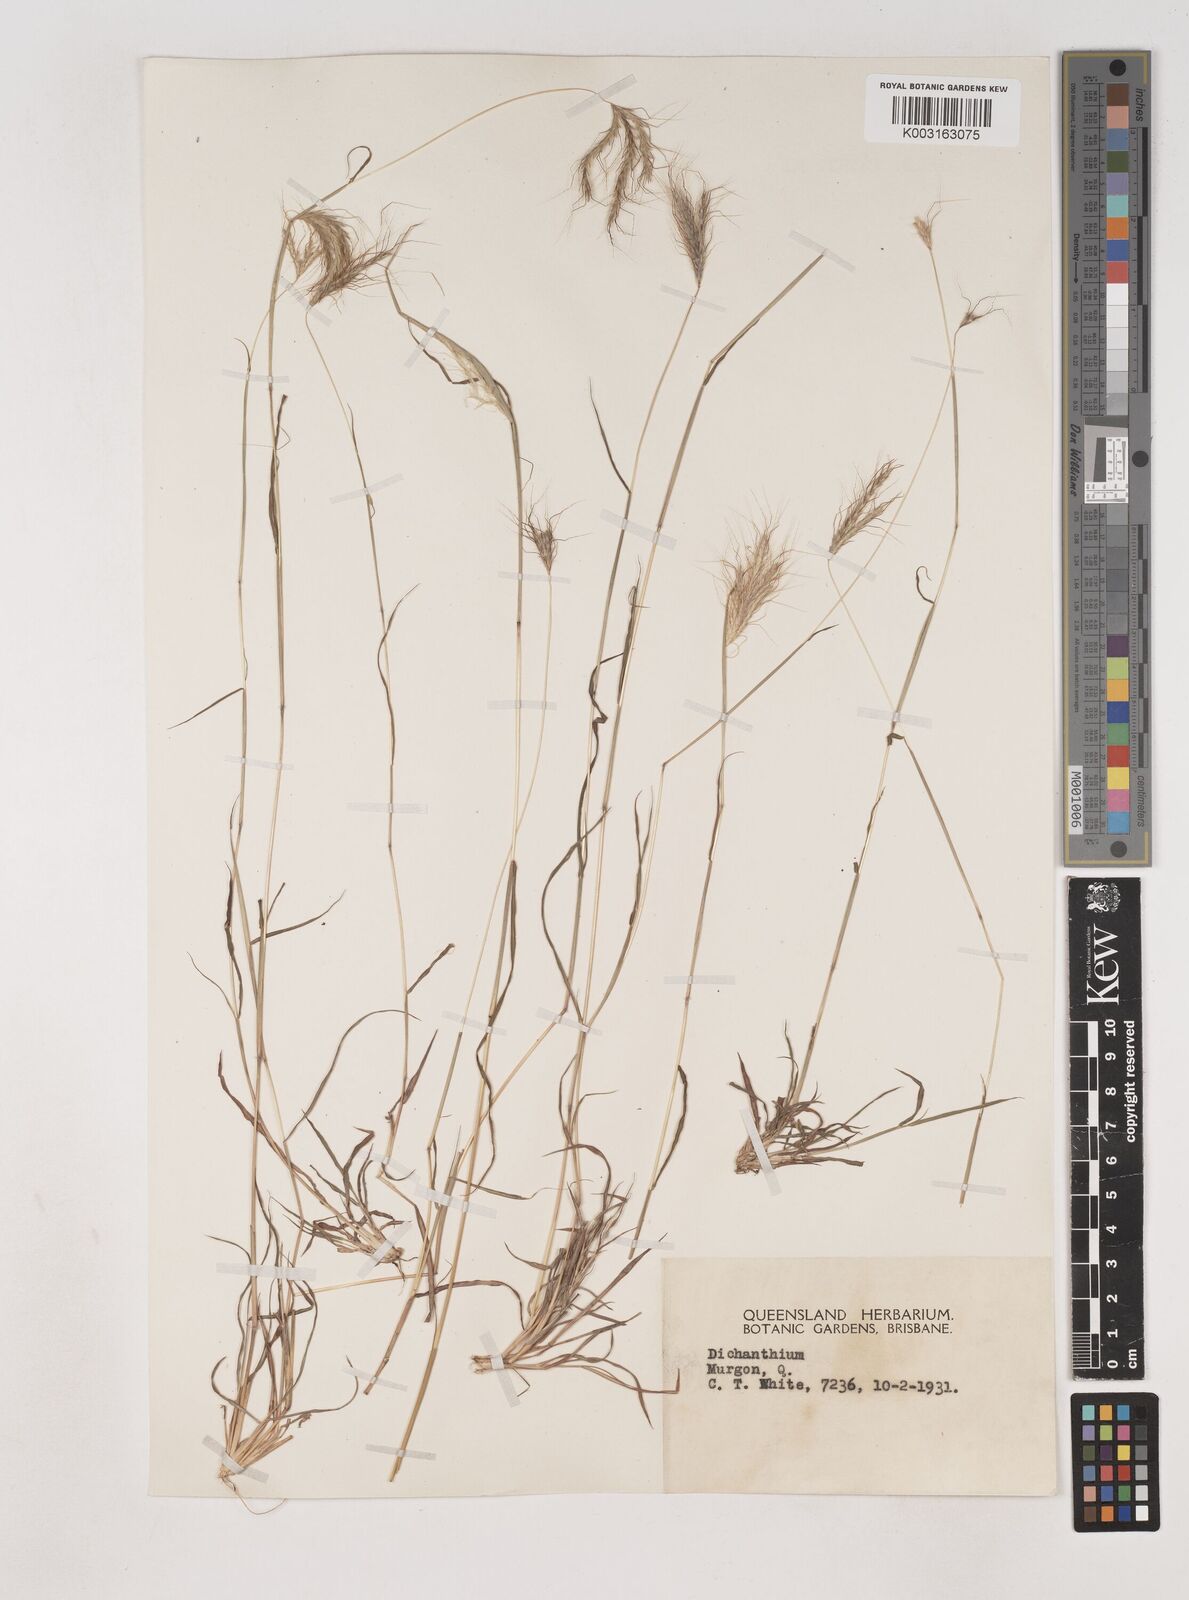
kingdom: Plantae
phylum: Tracheophyta
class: Liliopsida
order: Poales
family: Poaceae
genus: Dichanthium
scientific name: Dichanthium sericeum
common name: Silky bluestem
